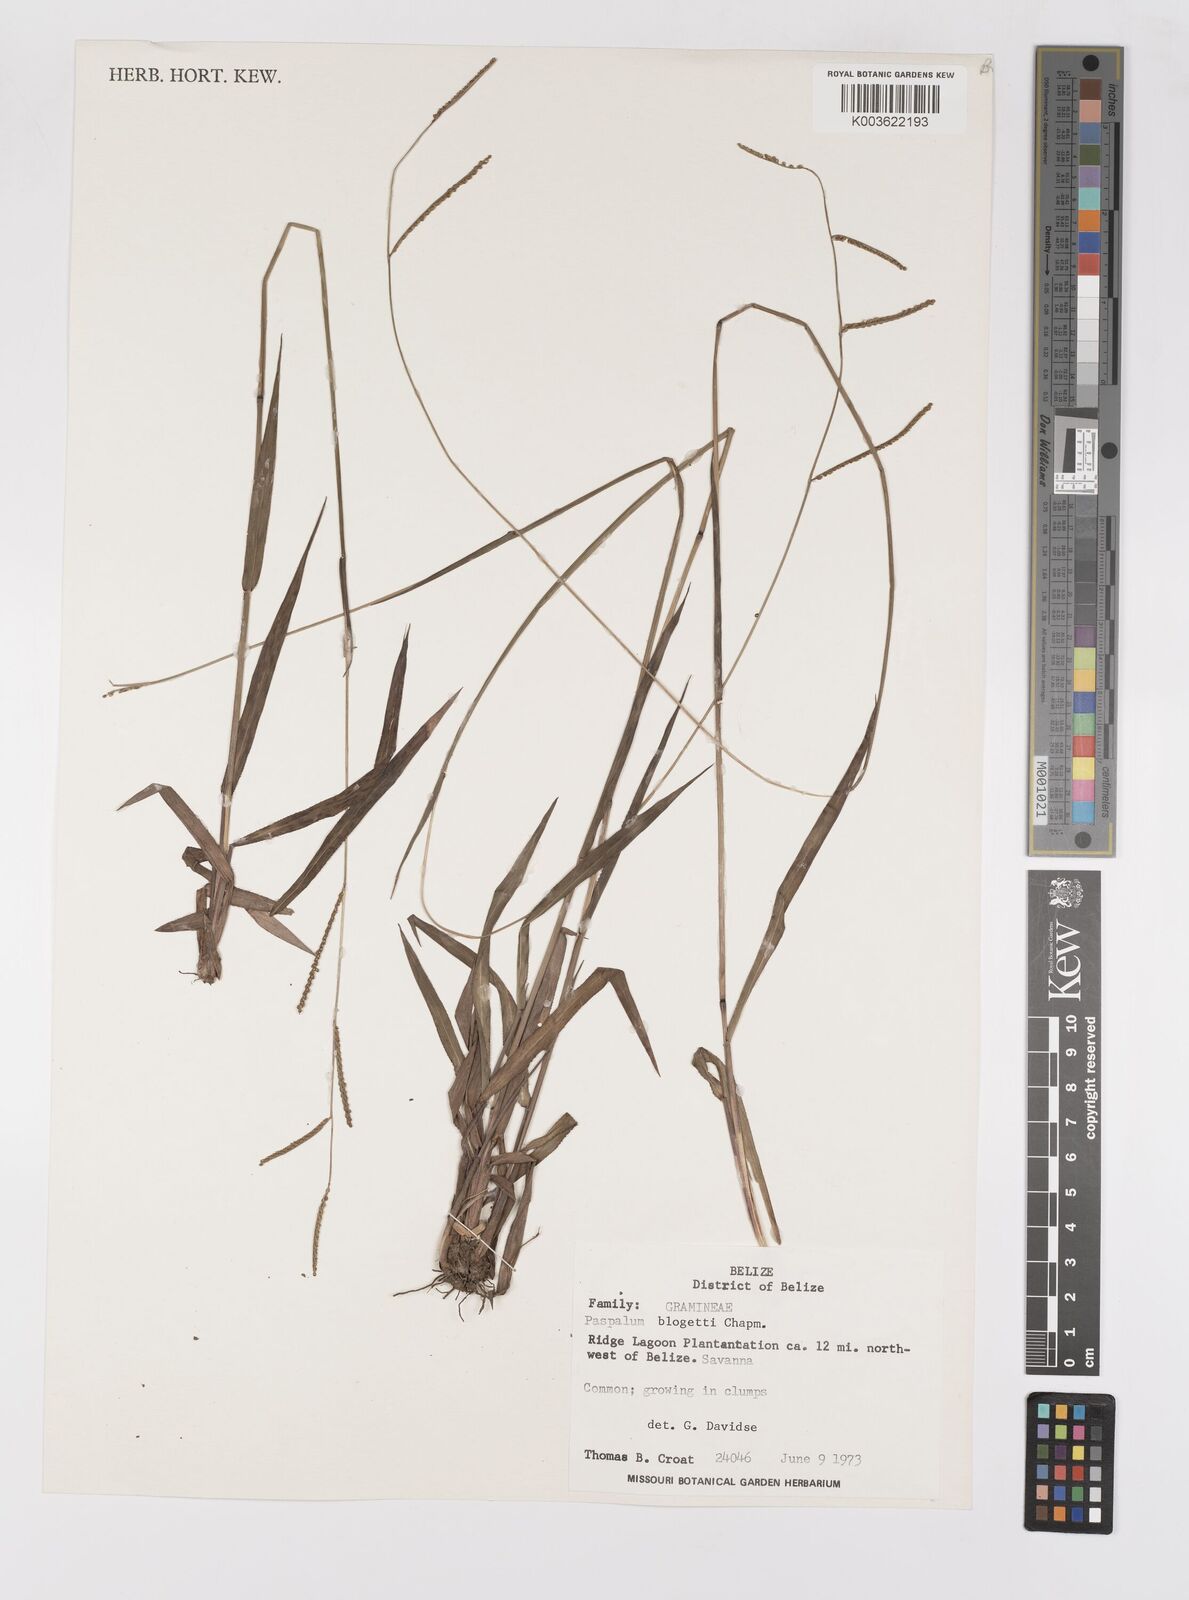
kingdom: Plantae
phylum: Tracheophyta
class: Liliopsida
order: Poales
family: Poaceae
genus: Paspalum
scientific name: Paspalum blodgettii
